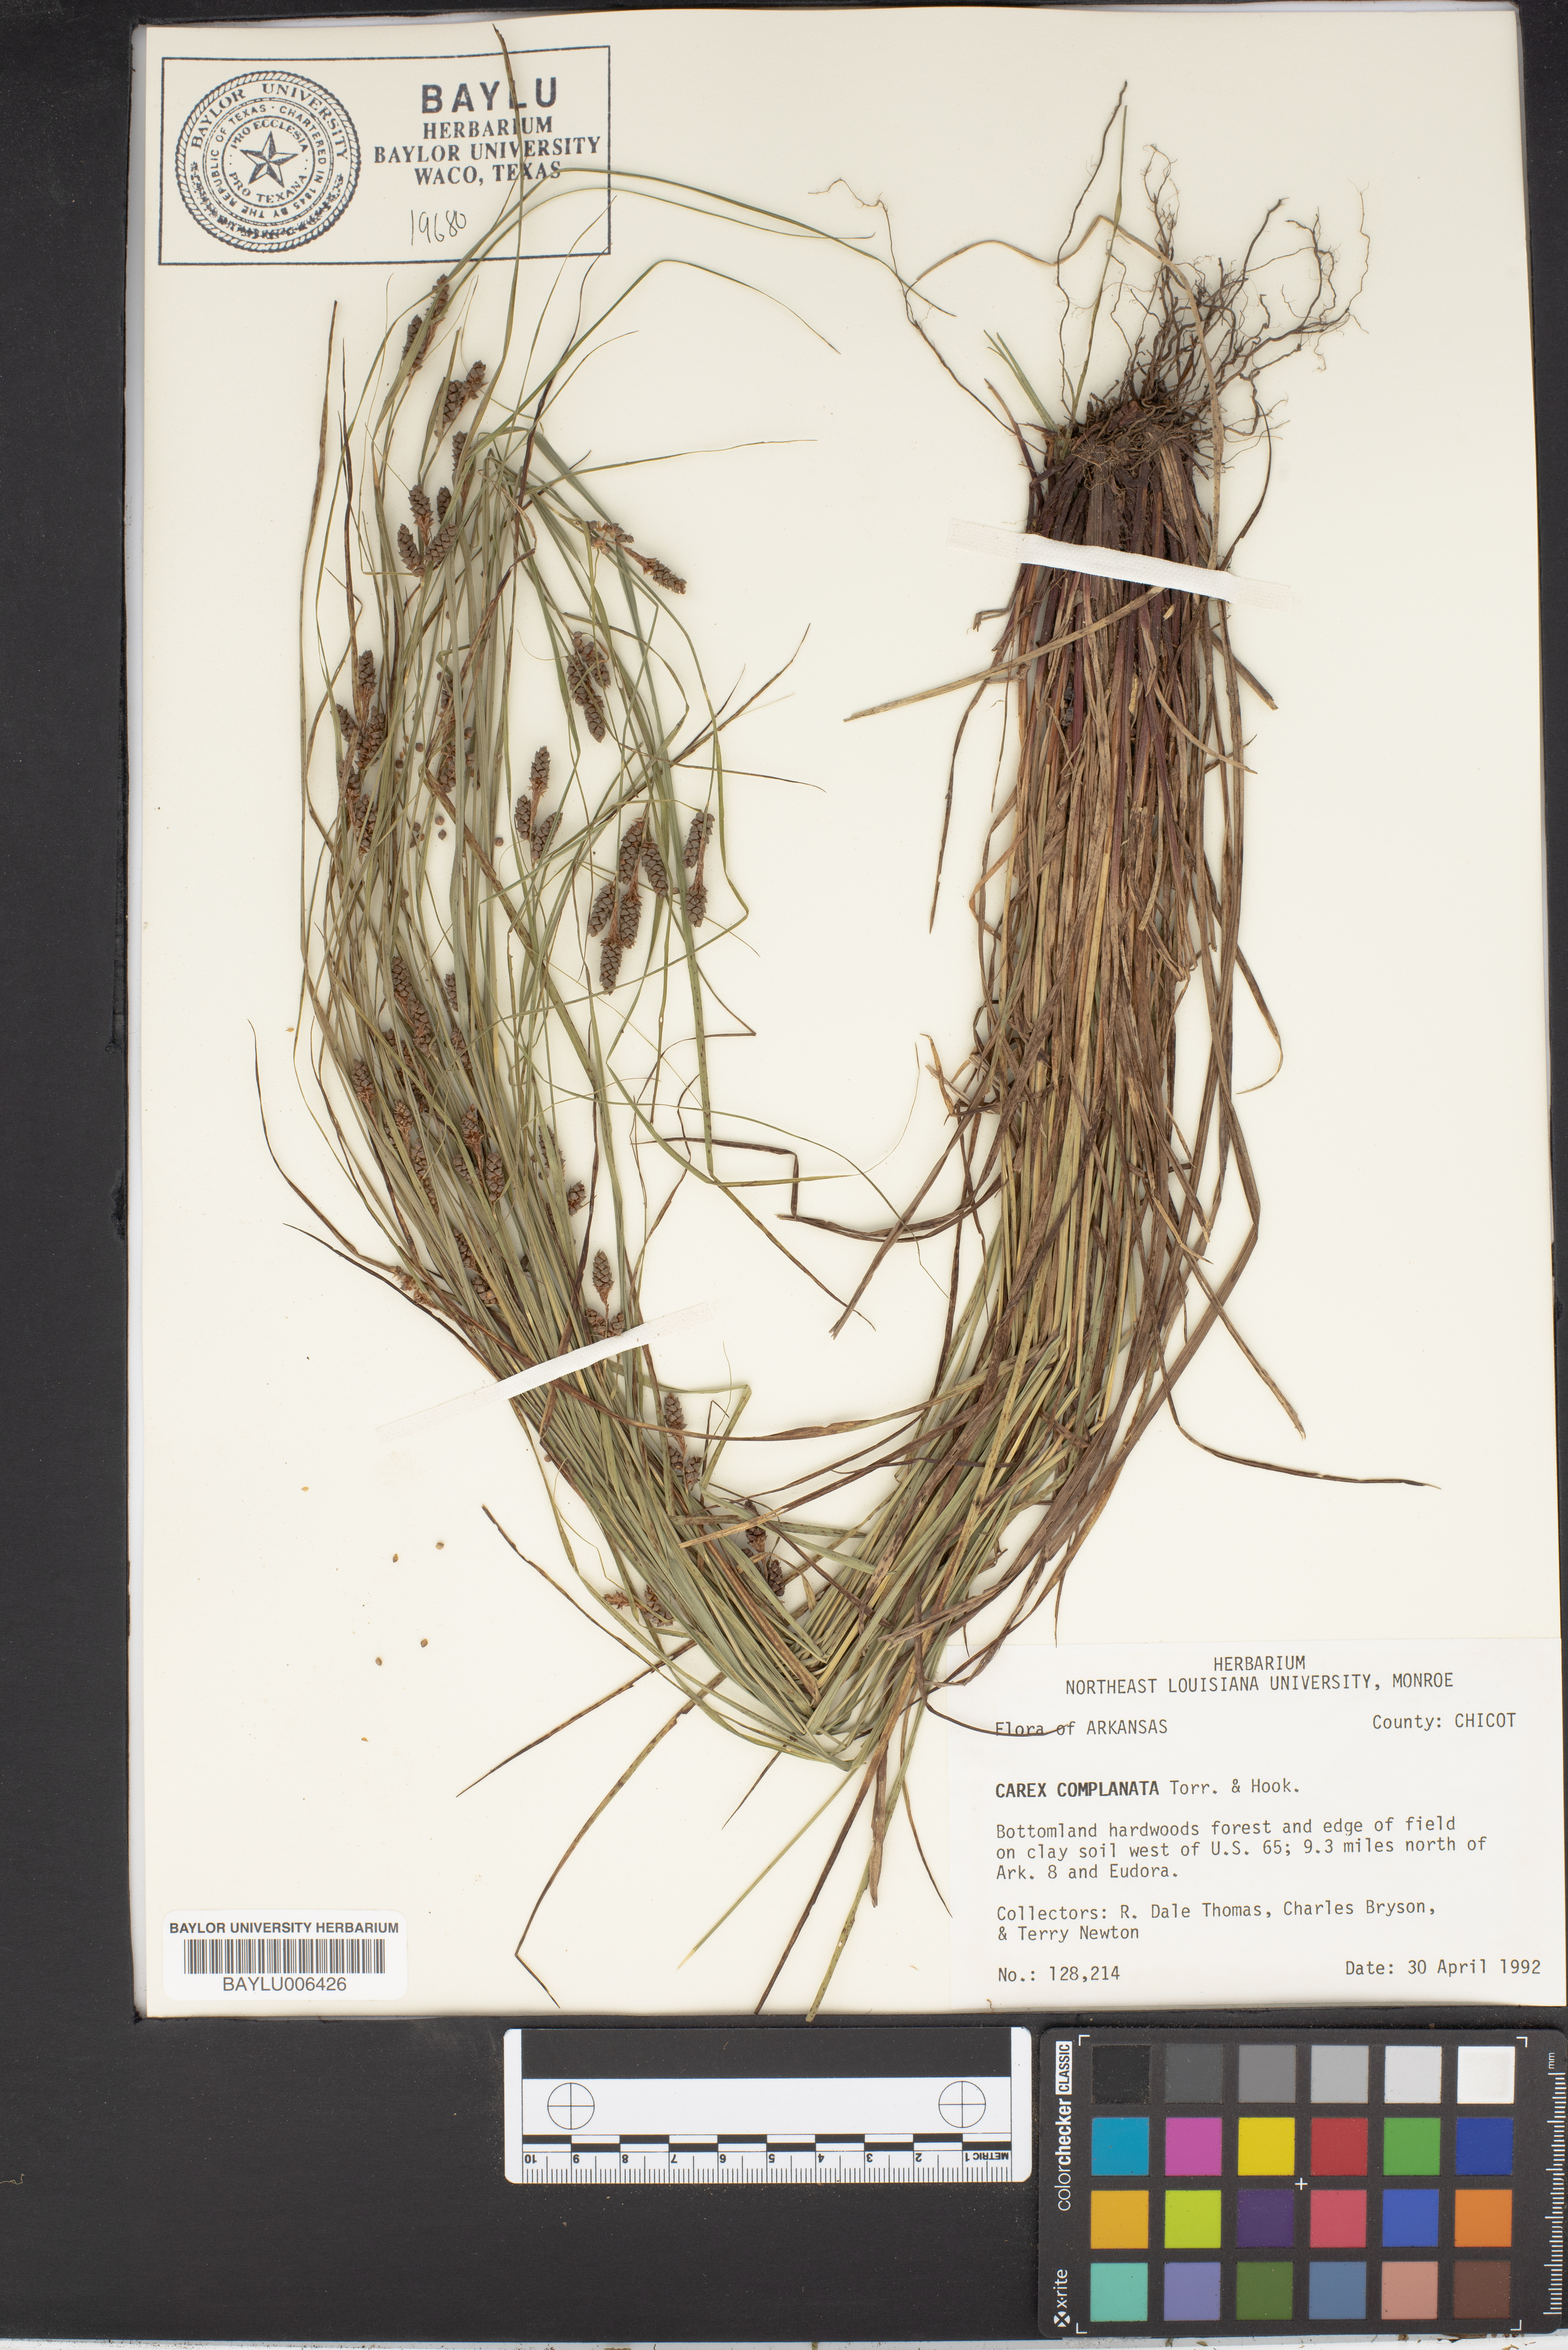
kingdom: Plantae
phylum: Tracheophyta
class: Liliopsida
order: Poales
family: Cyperaceae
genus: Carex
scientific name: Carex complanata
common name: Hirsute sedge
